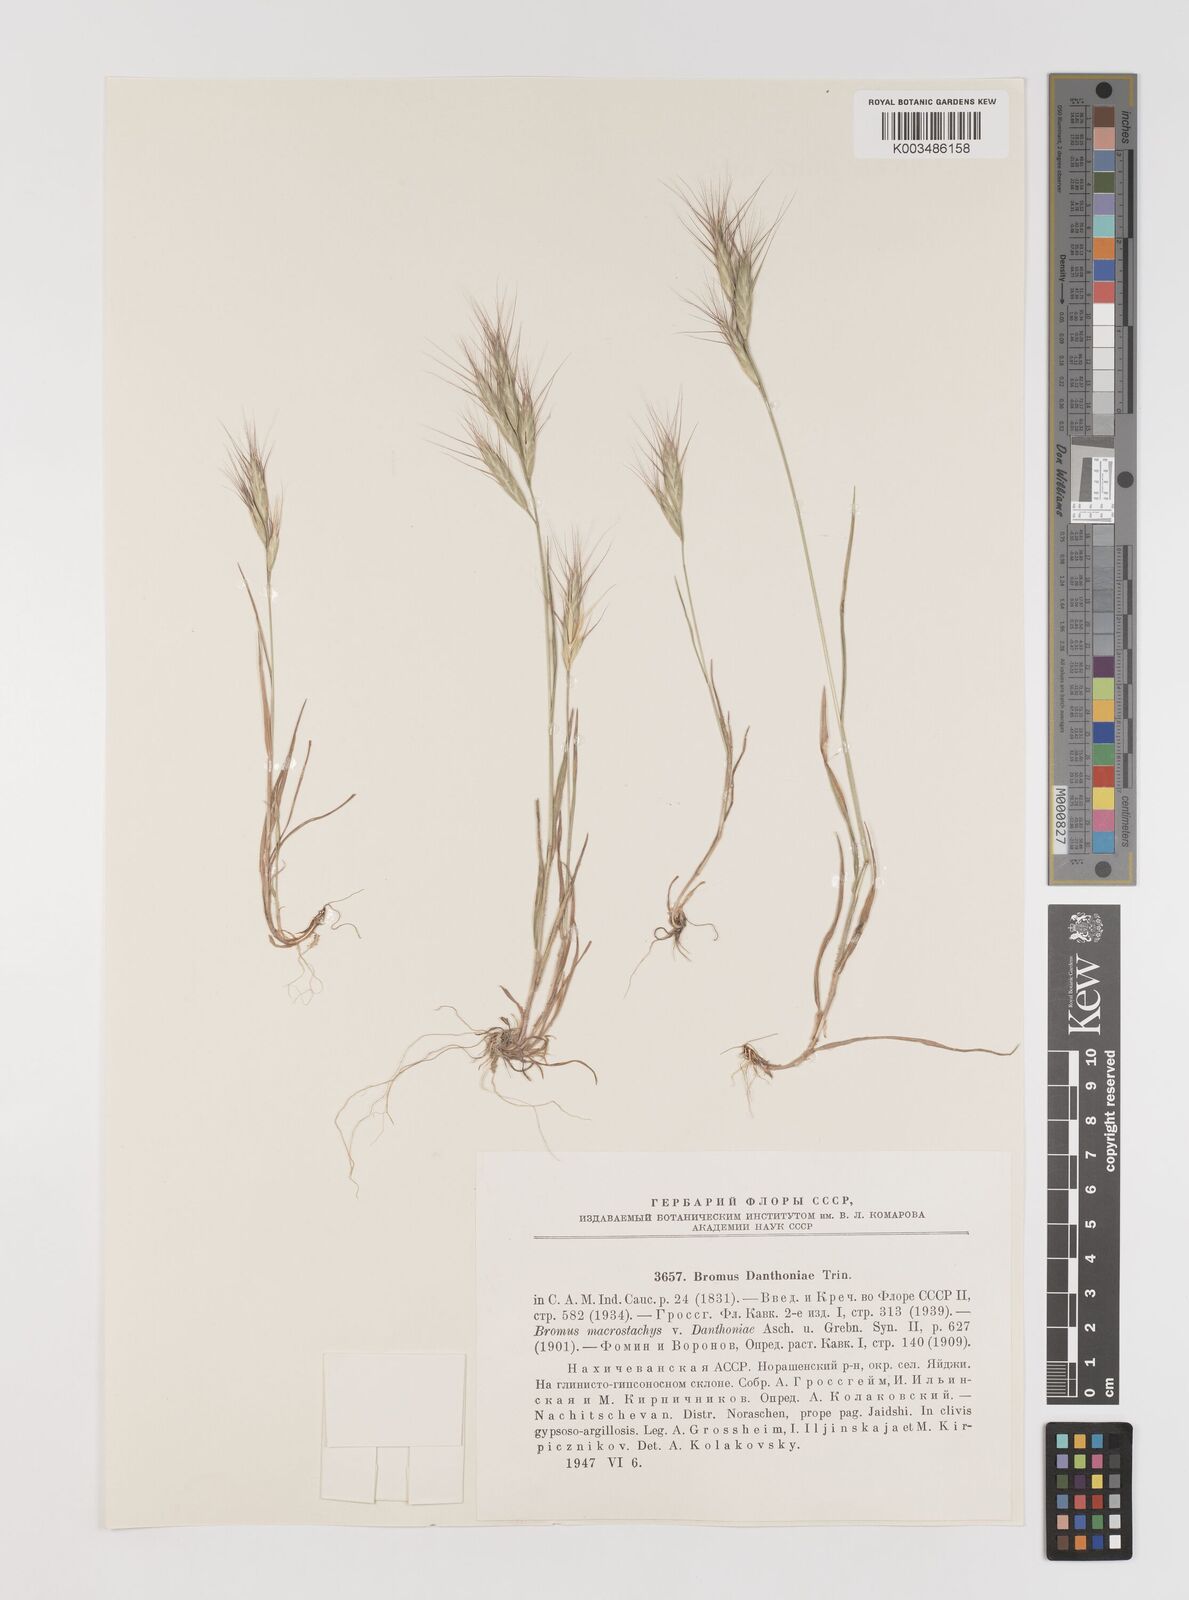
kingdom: Plantae
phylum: Tracheophyta
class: Liliopsida
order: Poales
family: Poaceae
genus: Bromus
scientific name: Bromus danthoniae
